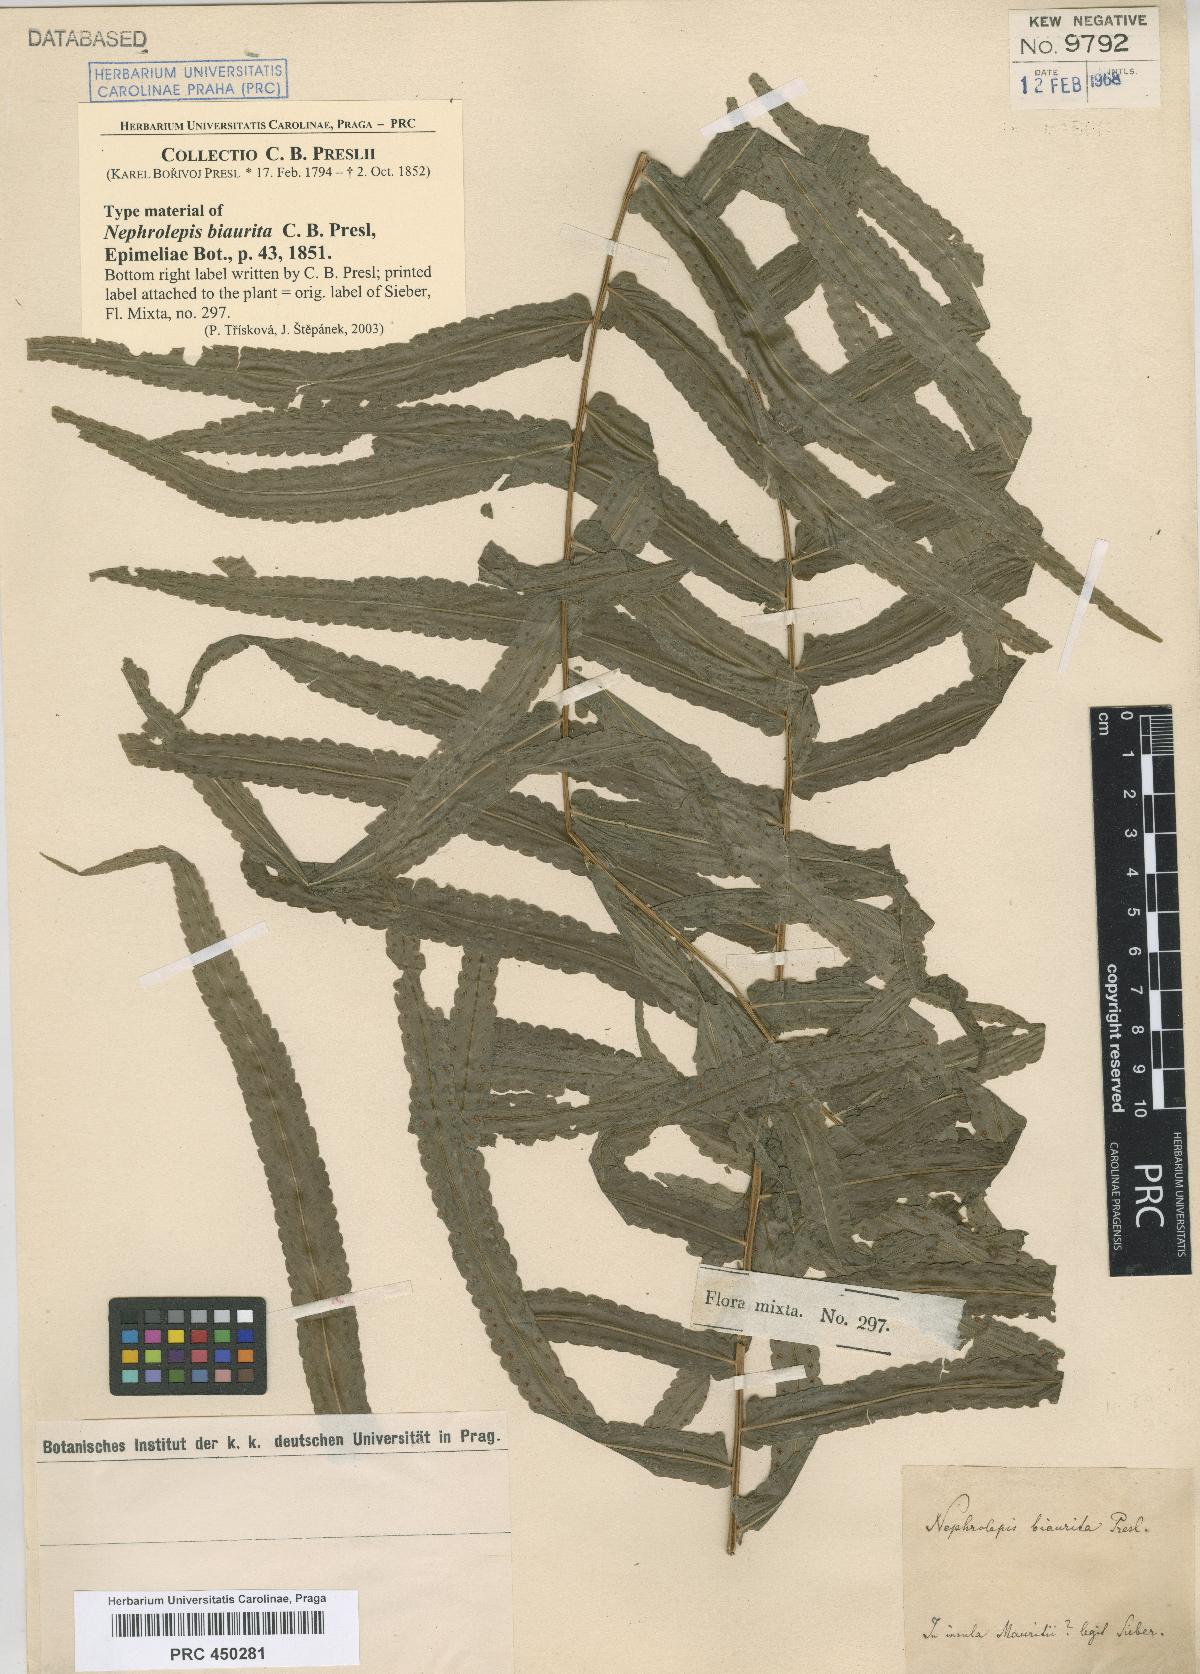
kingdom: Plantae
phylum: Tracheophyta
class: Polypodiopsida
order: Polypodiales
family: Nephrolepidaceae
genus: Nephrolepis
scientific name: Nephrolepis biserrata
